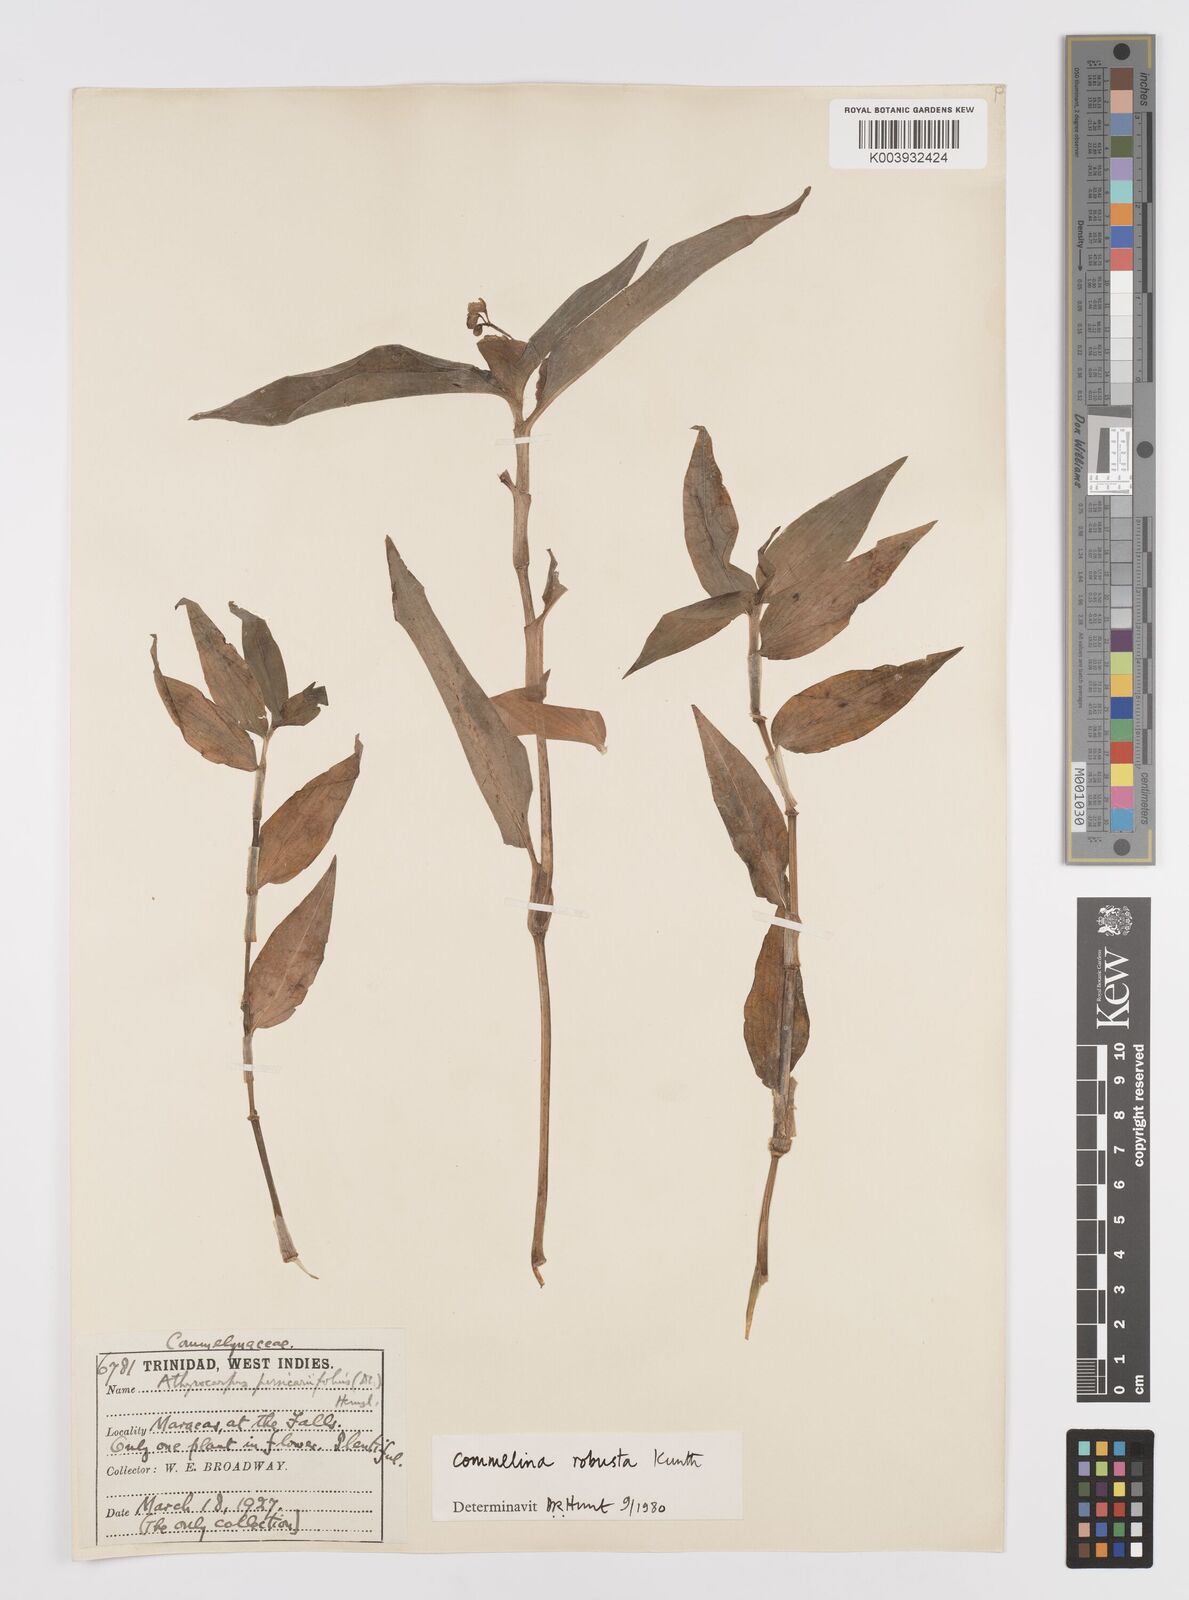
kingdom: Plantae
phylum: Tracheophyta
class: Liliopsida
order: Commelinales
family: Commelinaceae
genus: Commelina
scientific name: Commelina obliqua
